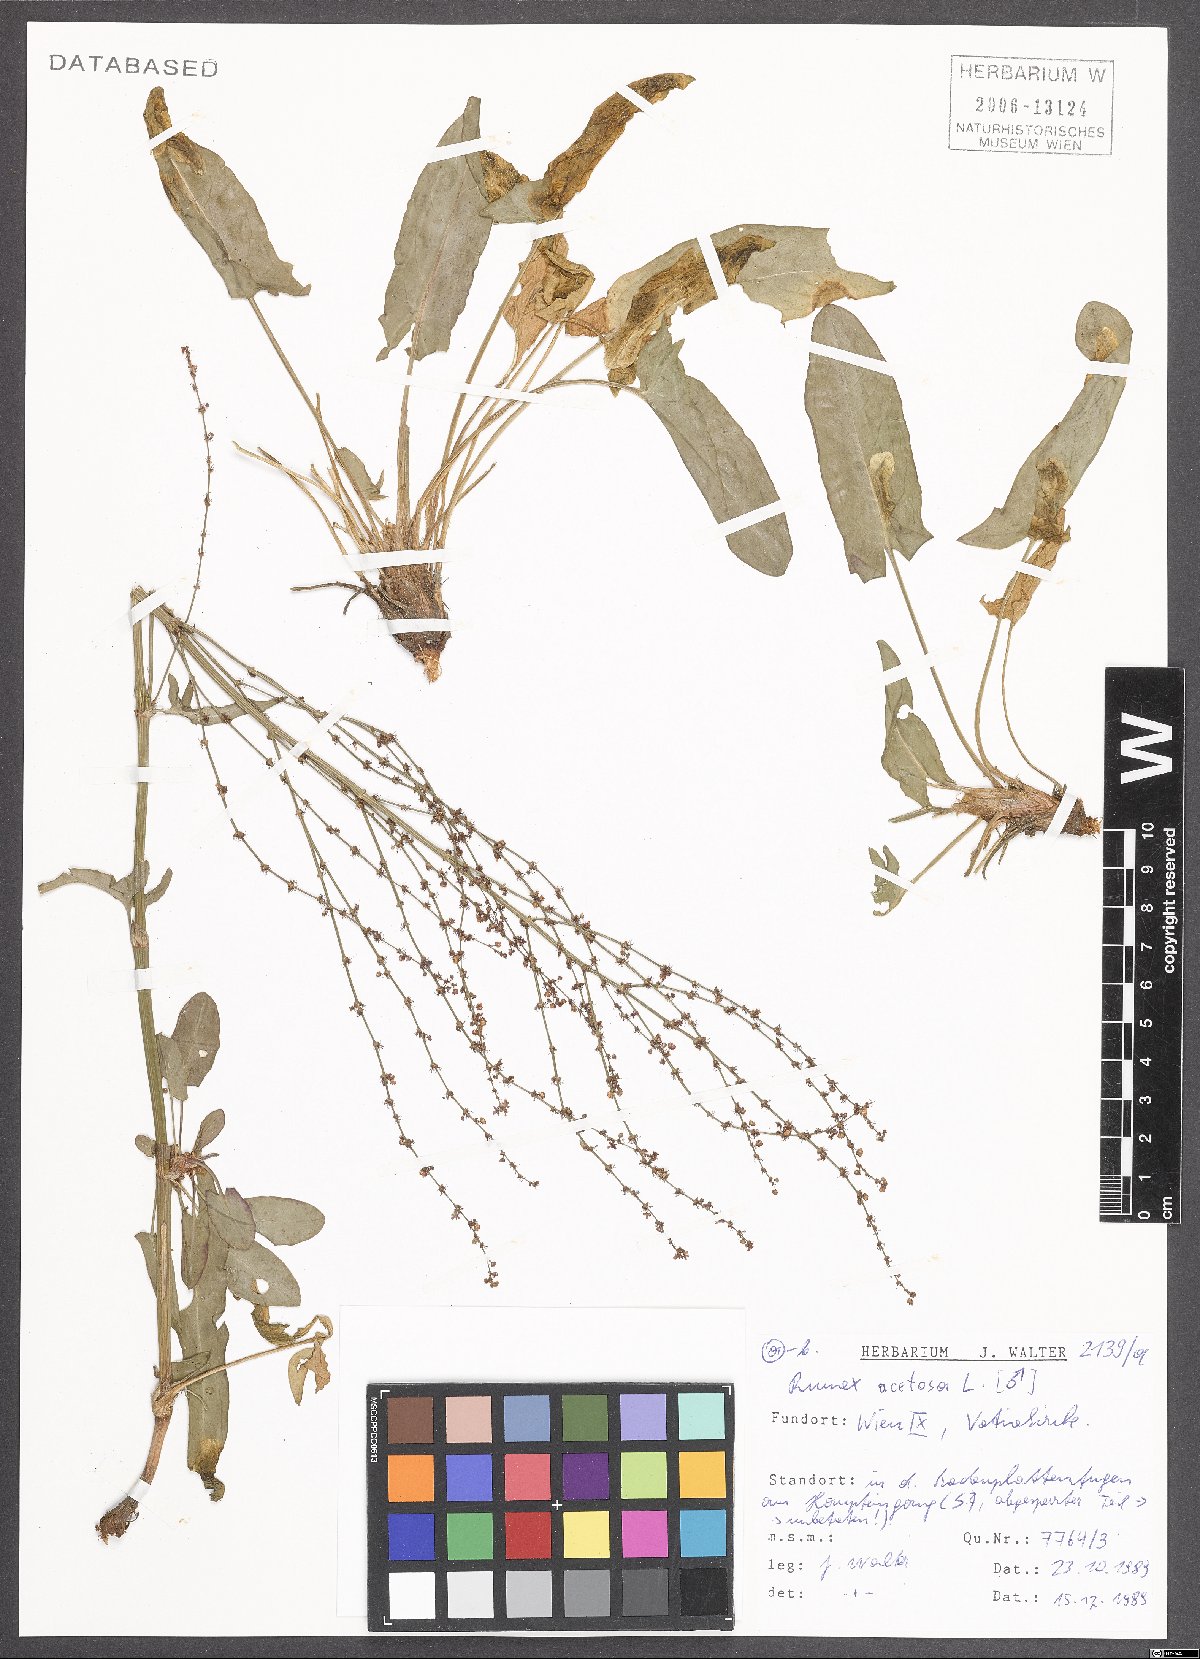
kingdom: Plantae
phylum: Tracheophyta
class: Magnoliopsida
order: Caryophyllales
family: Polygonaceae
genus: Rumex
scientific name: Rumex acetosa
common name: Garden sorrel
